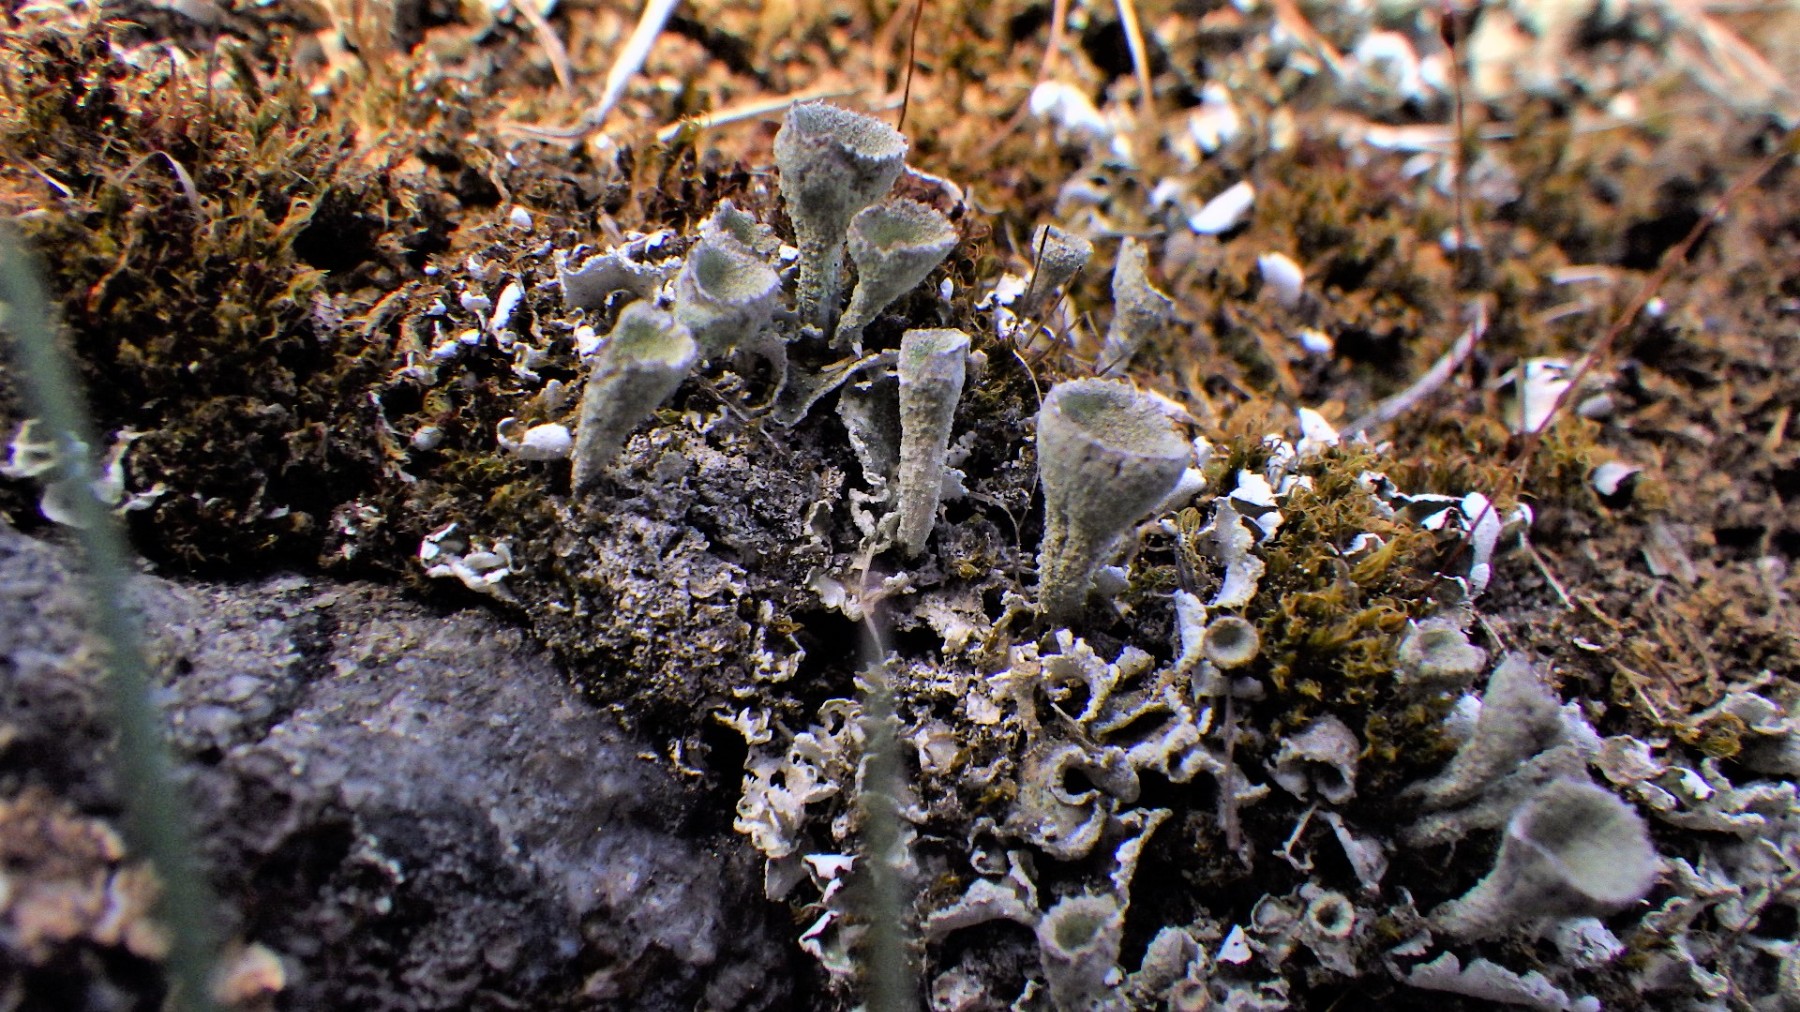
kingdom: Fungi
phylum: Ascomycota
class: Lecanoromycetes
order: Lecanorales
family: Cladoniaceae
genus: Cladonia
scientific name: Cladonia humilis
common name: lav bægerlav
